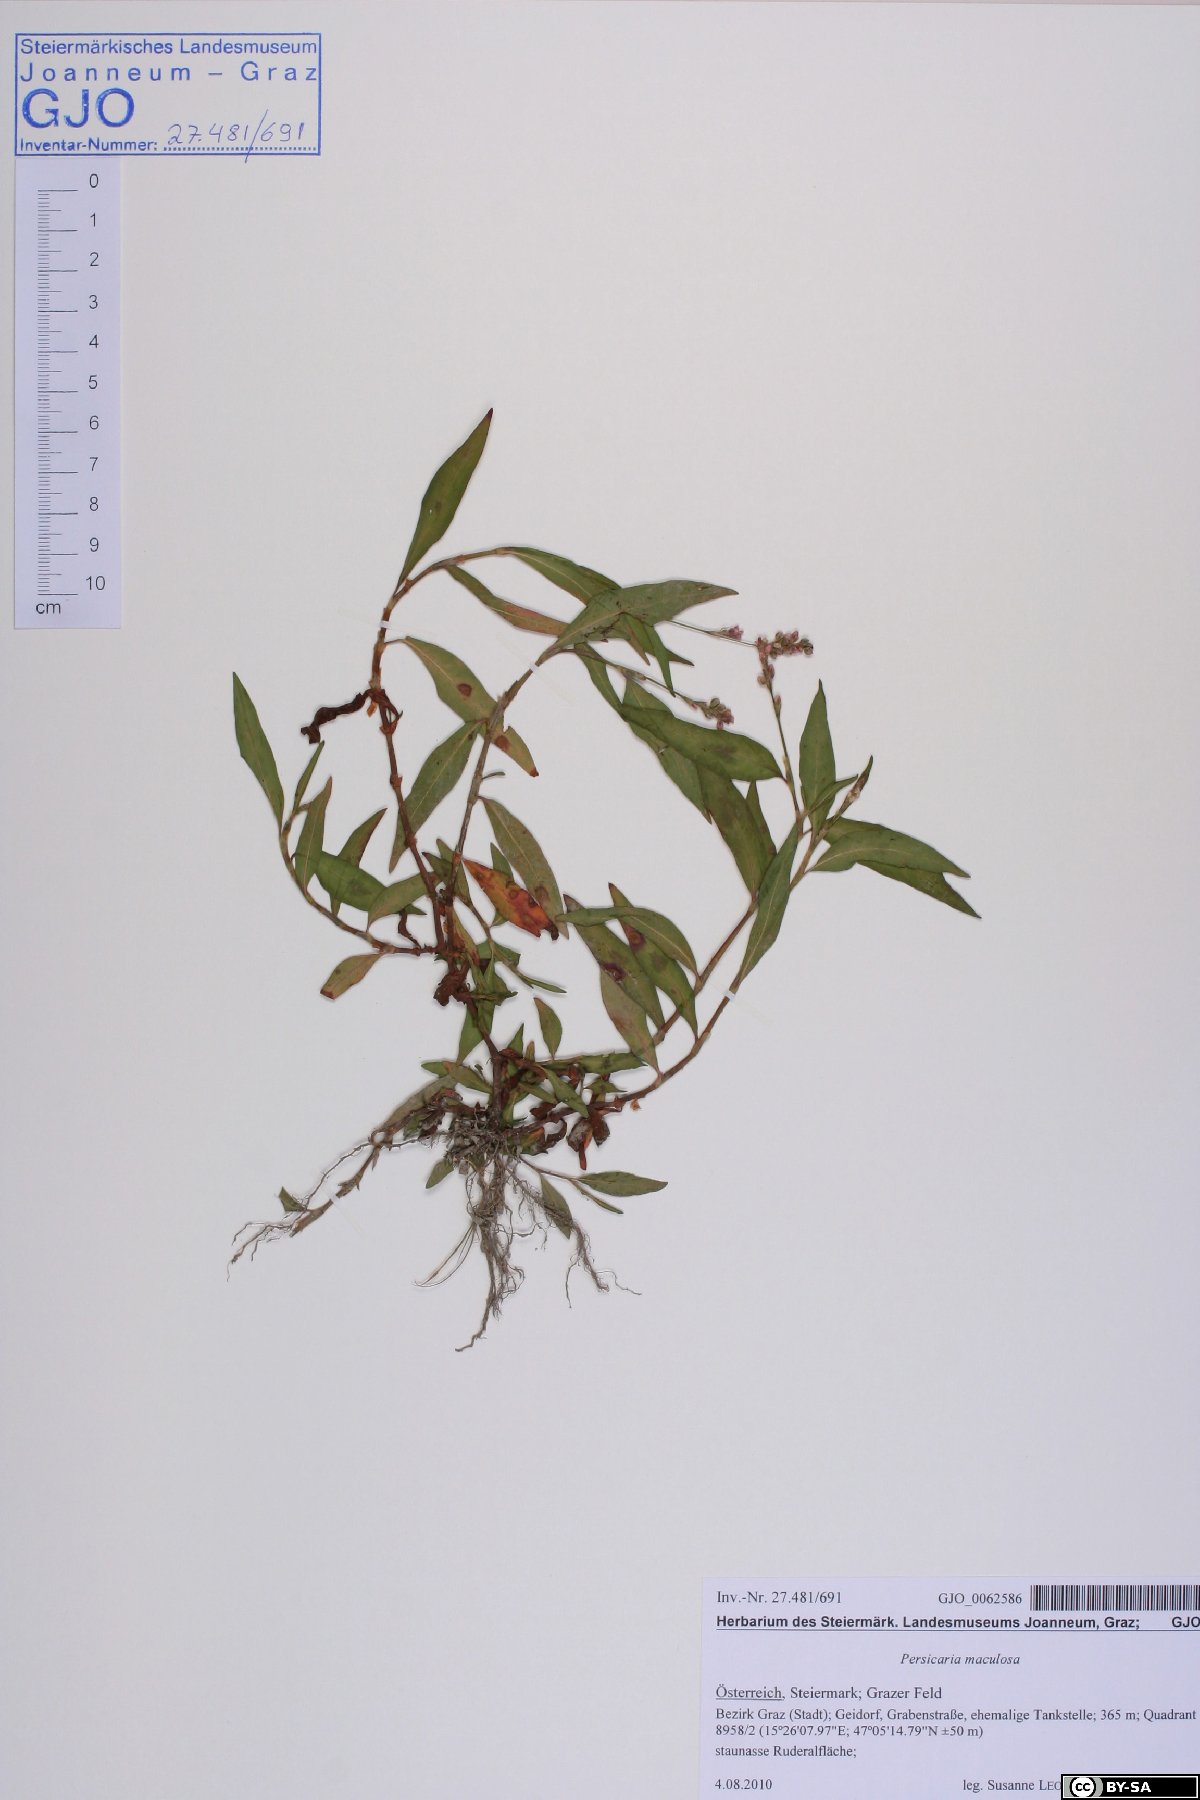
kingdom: Plantae
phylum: Tracheophyta
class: Magnoliopsida
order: Caryophyllales
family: Polygonaceae
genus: Persicaria
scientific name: Persicaria maculosa
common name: Redshank
